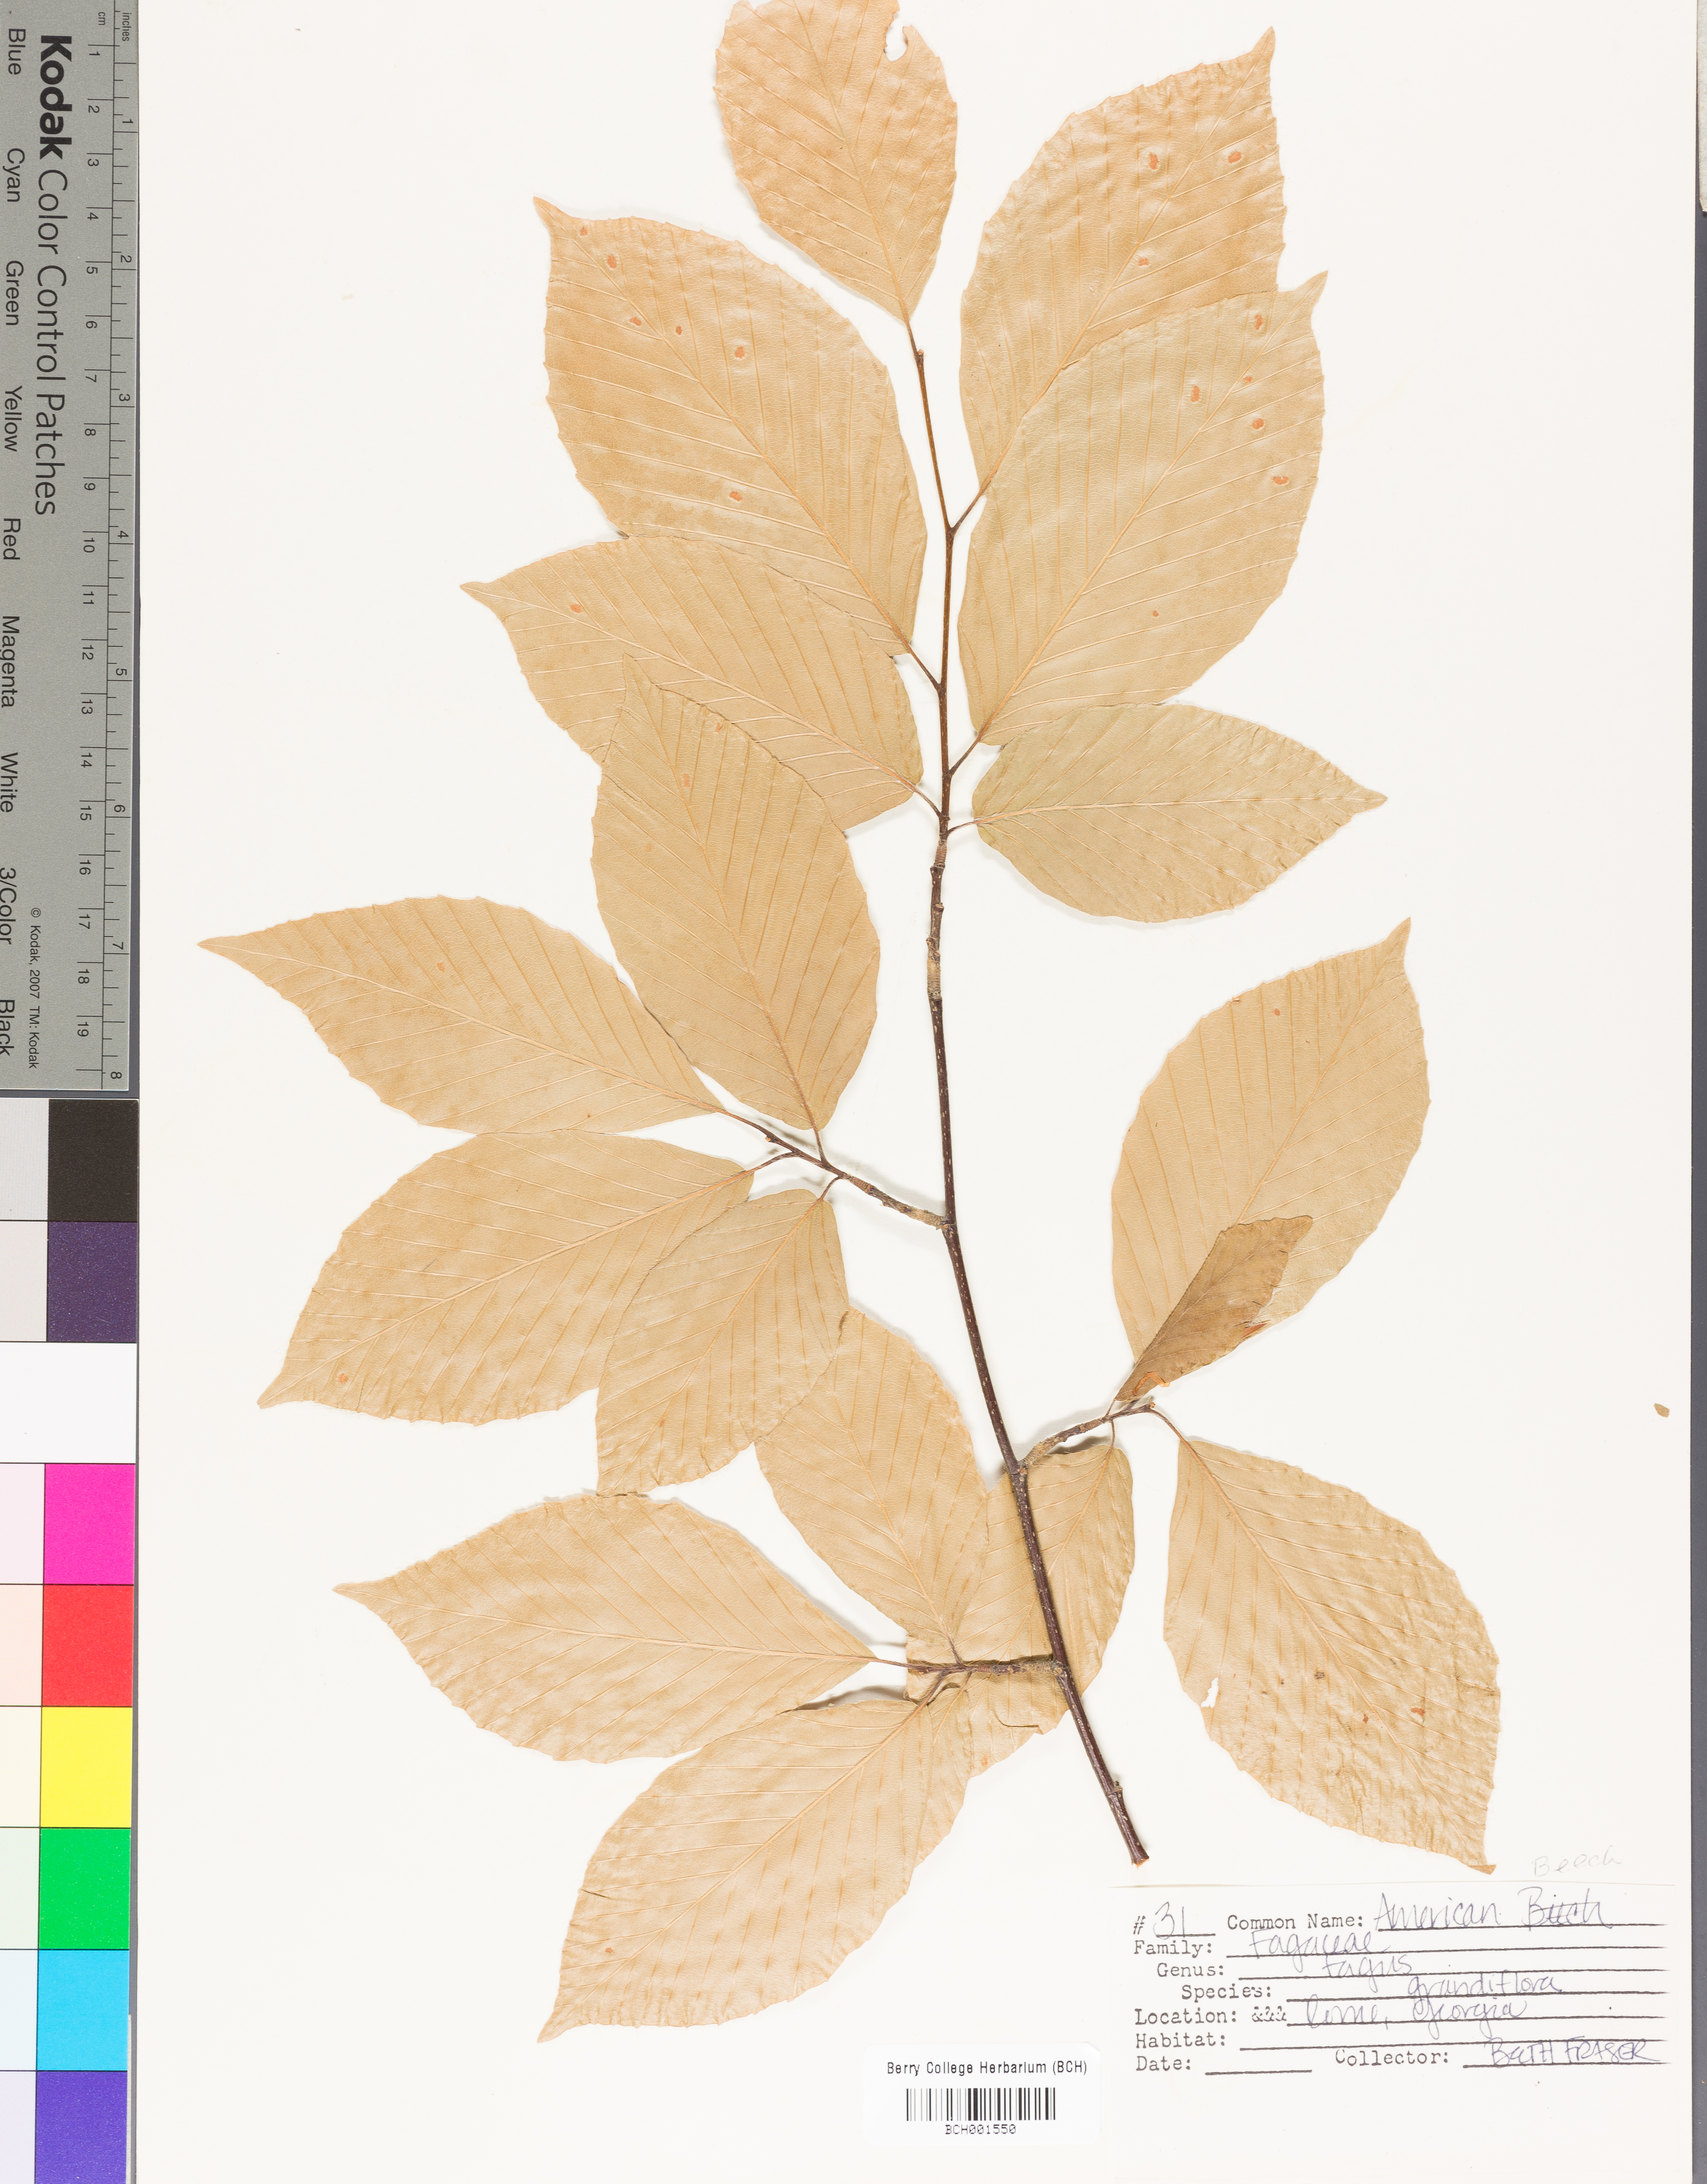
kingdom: Plantae
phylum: Tracheophyta
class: Magnoliopsida
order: Fagales
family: Fagaceae
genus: Fagus
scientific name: Fagus grandifolia
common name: American beech
